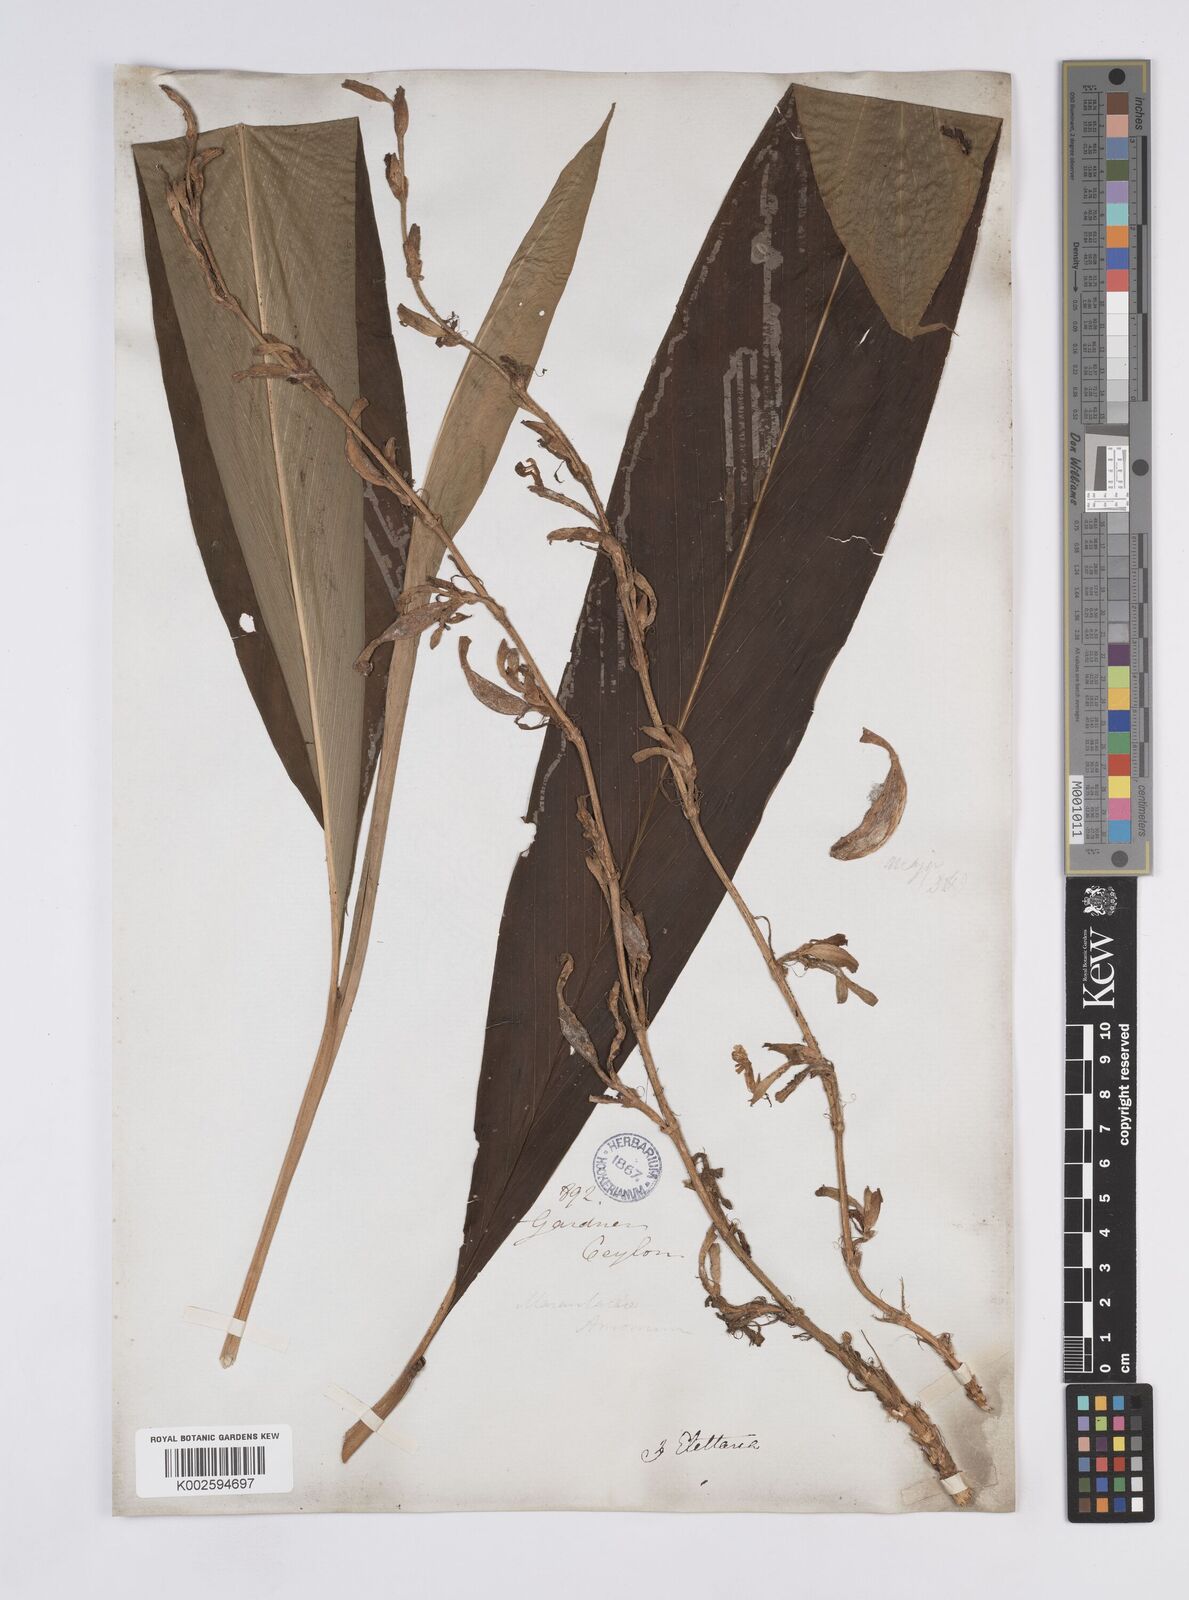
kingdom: Plantae
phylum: Tracheophyta
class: Liliopsida
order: Zingiberales
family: Zingiberaceae
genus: Elettaria
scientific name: Elettaria ensal
